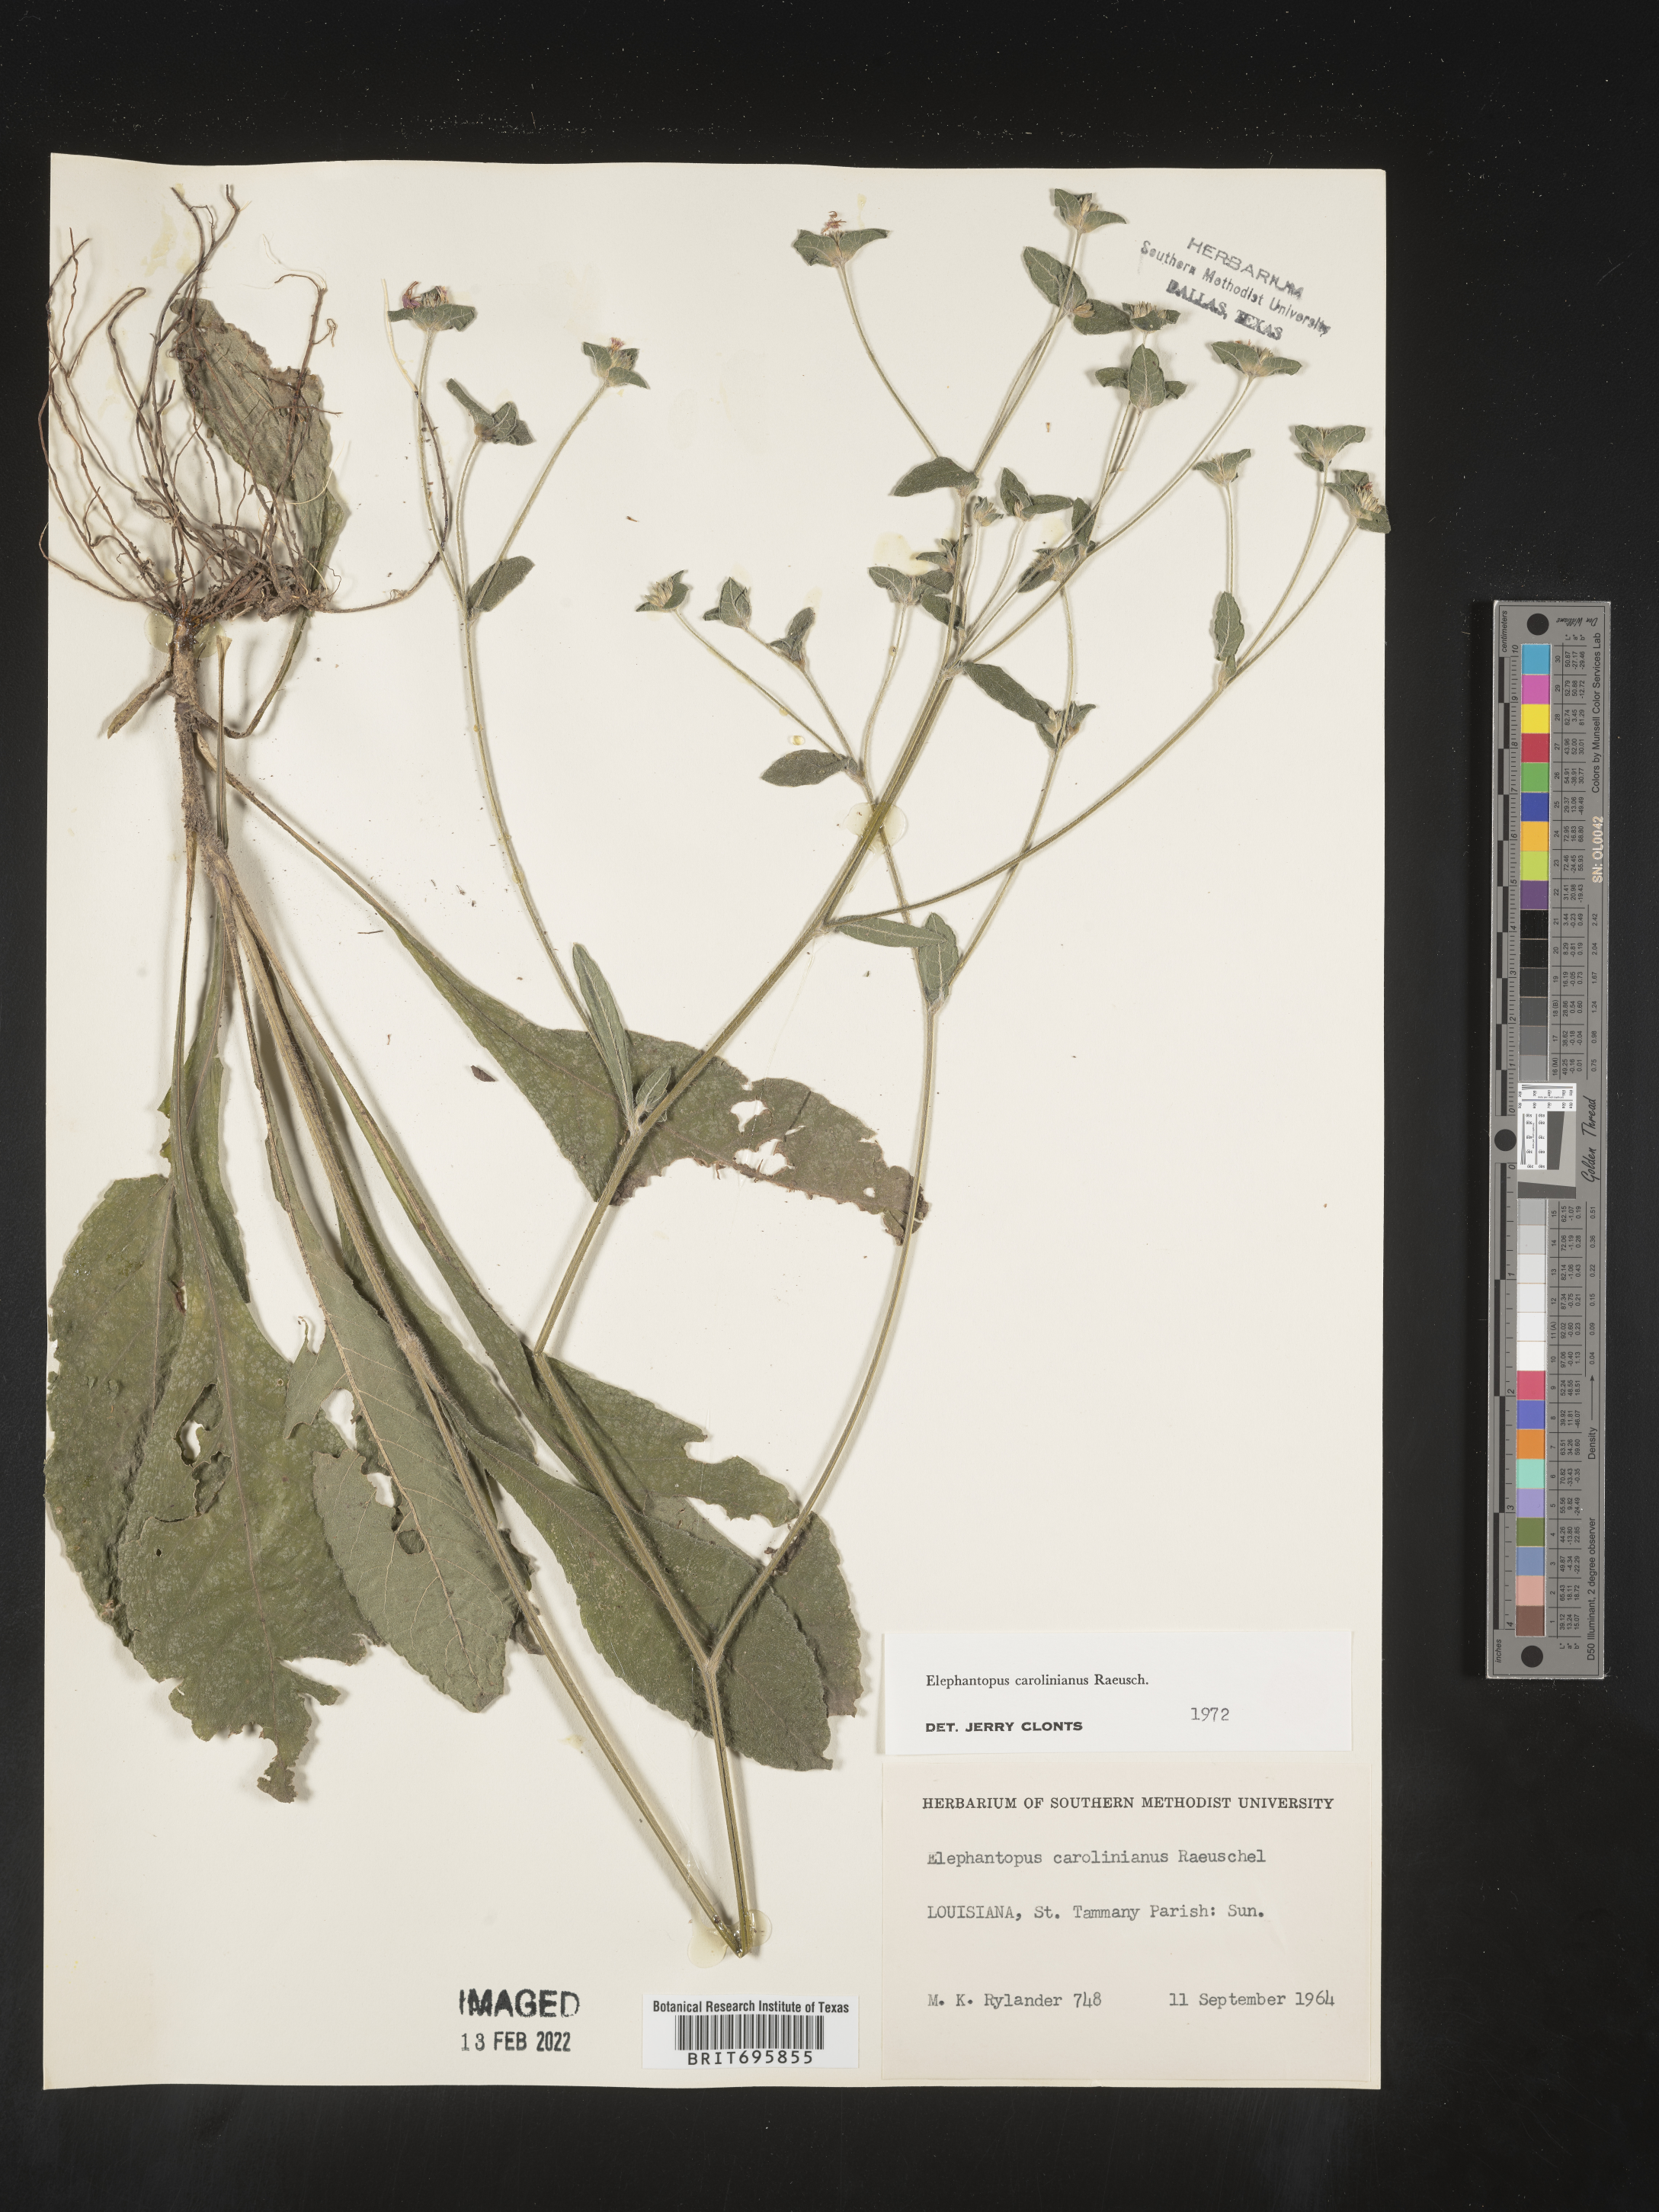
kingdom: Plantae
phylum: Tracheophyta
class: Magnoliopsida
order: Asterales
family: Asteraceae
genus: Elephantopus
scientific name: Elephantopus carolinianus
